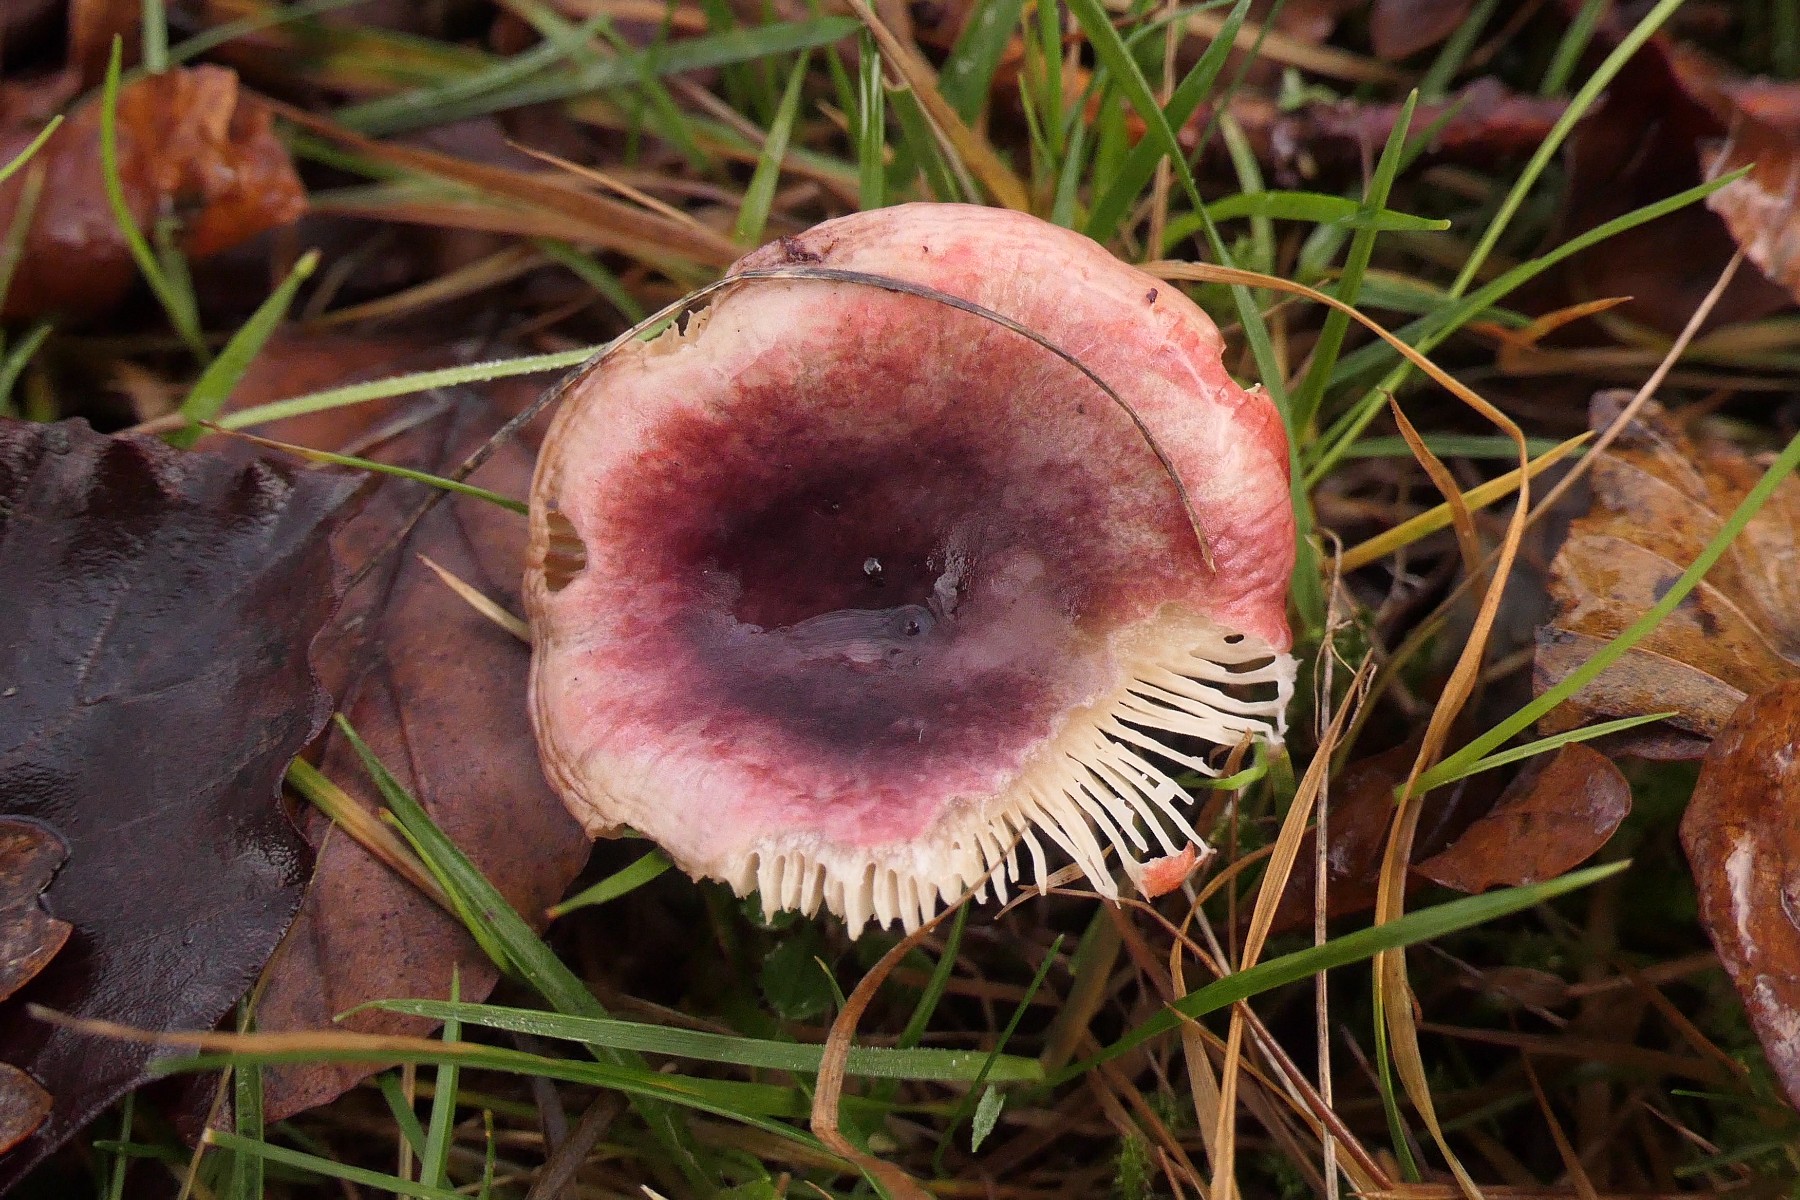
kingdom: Fungi
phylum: Basidiomycota
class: Agaricomycetes
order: Russulales
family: Russulaceae
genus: Russula
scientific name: Russula fragilis
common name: savbladet skørhat
